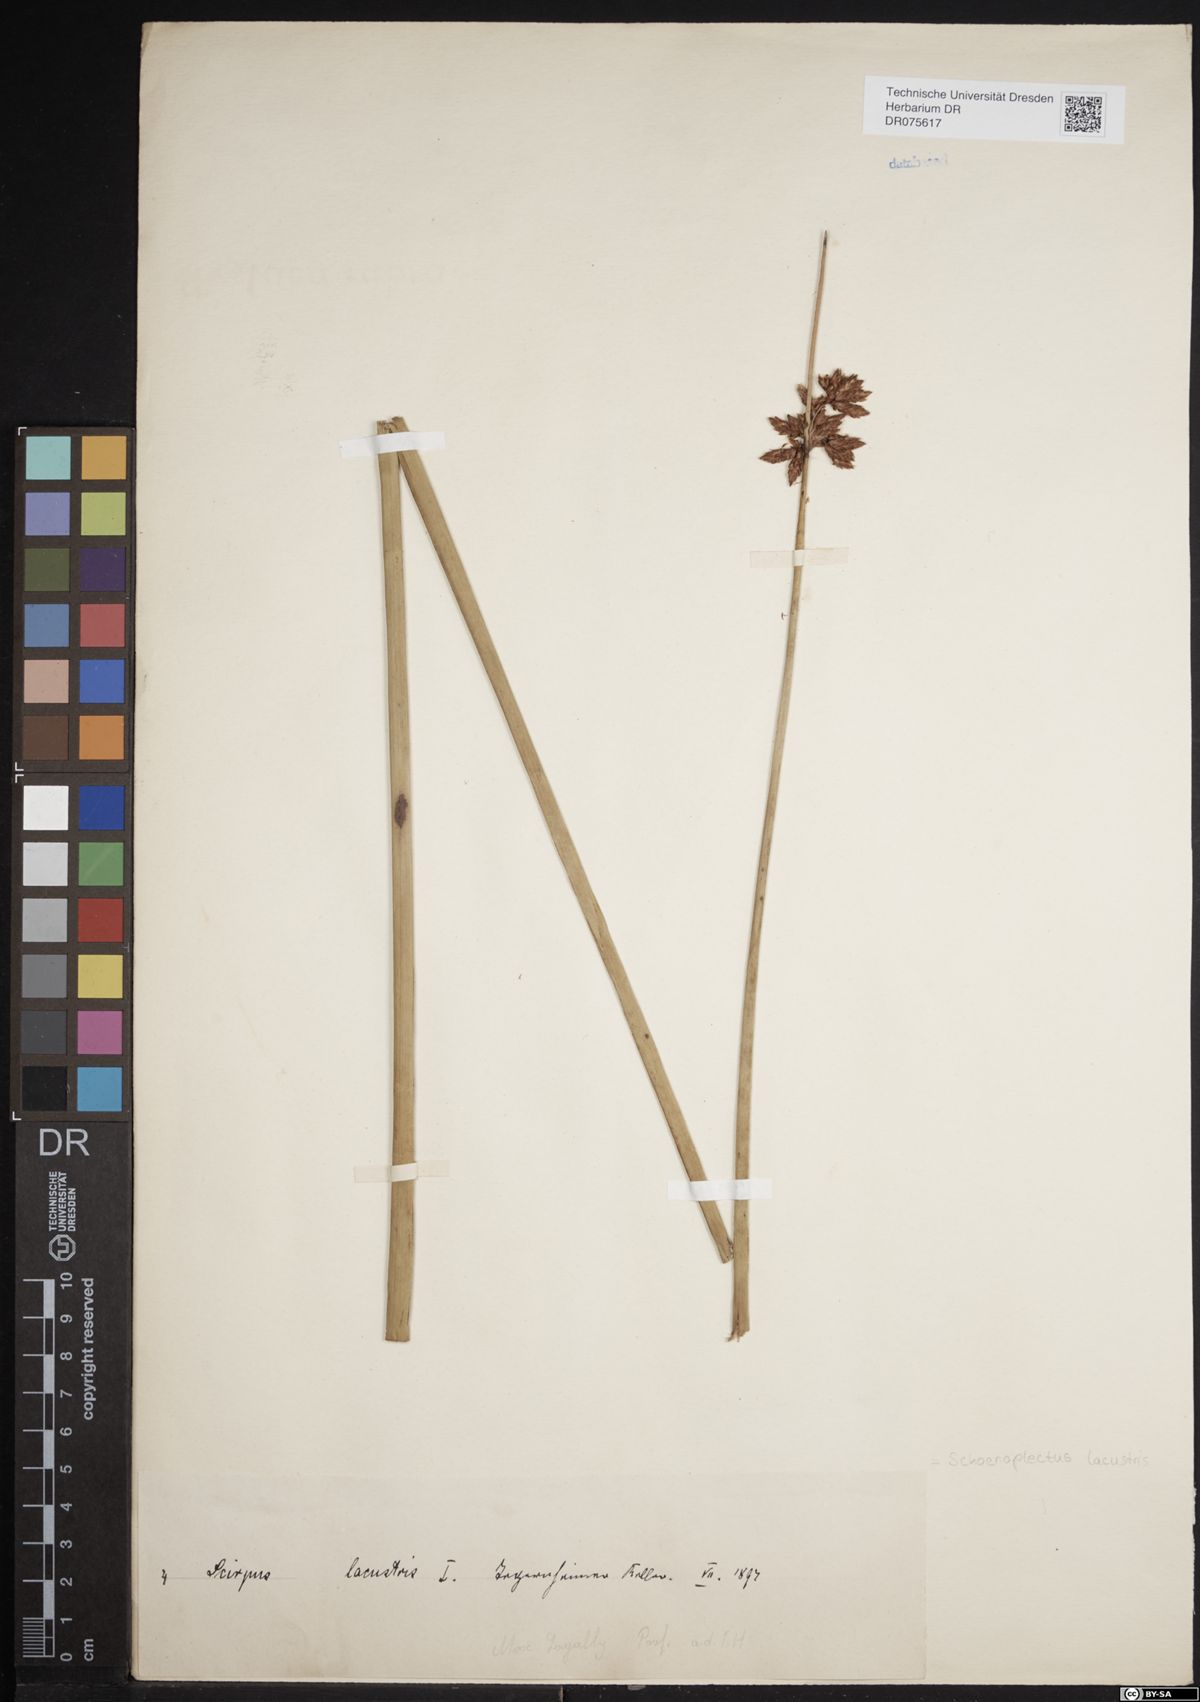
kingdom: Plantae
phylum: Tracheophyta
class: Liliopsida
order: Poales
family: Cyperaceae
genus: Schoenoplectus
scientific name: Schoenoplectus lacustris
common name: Common club-rush
